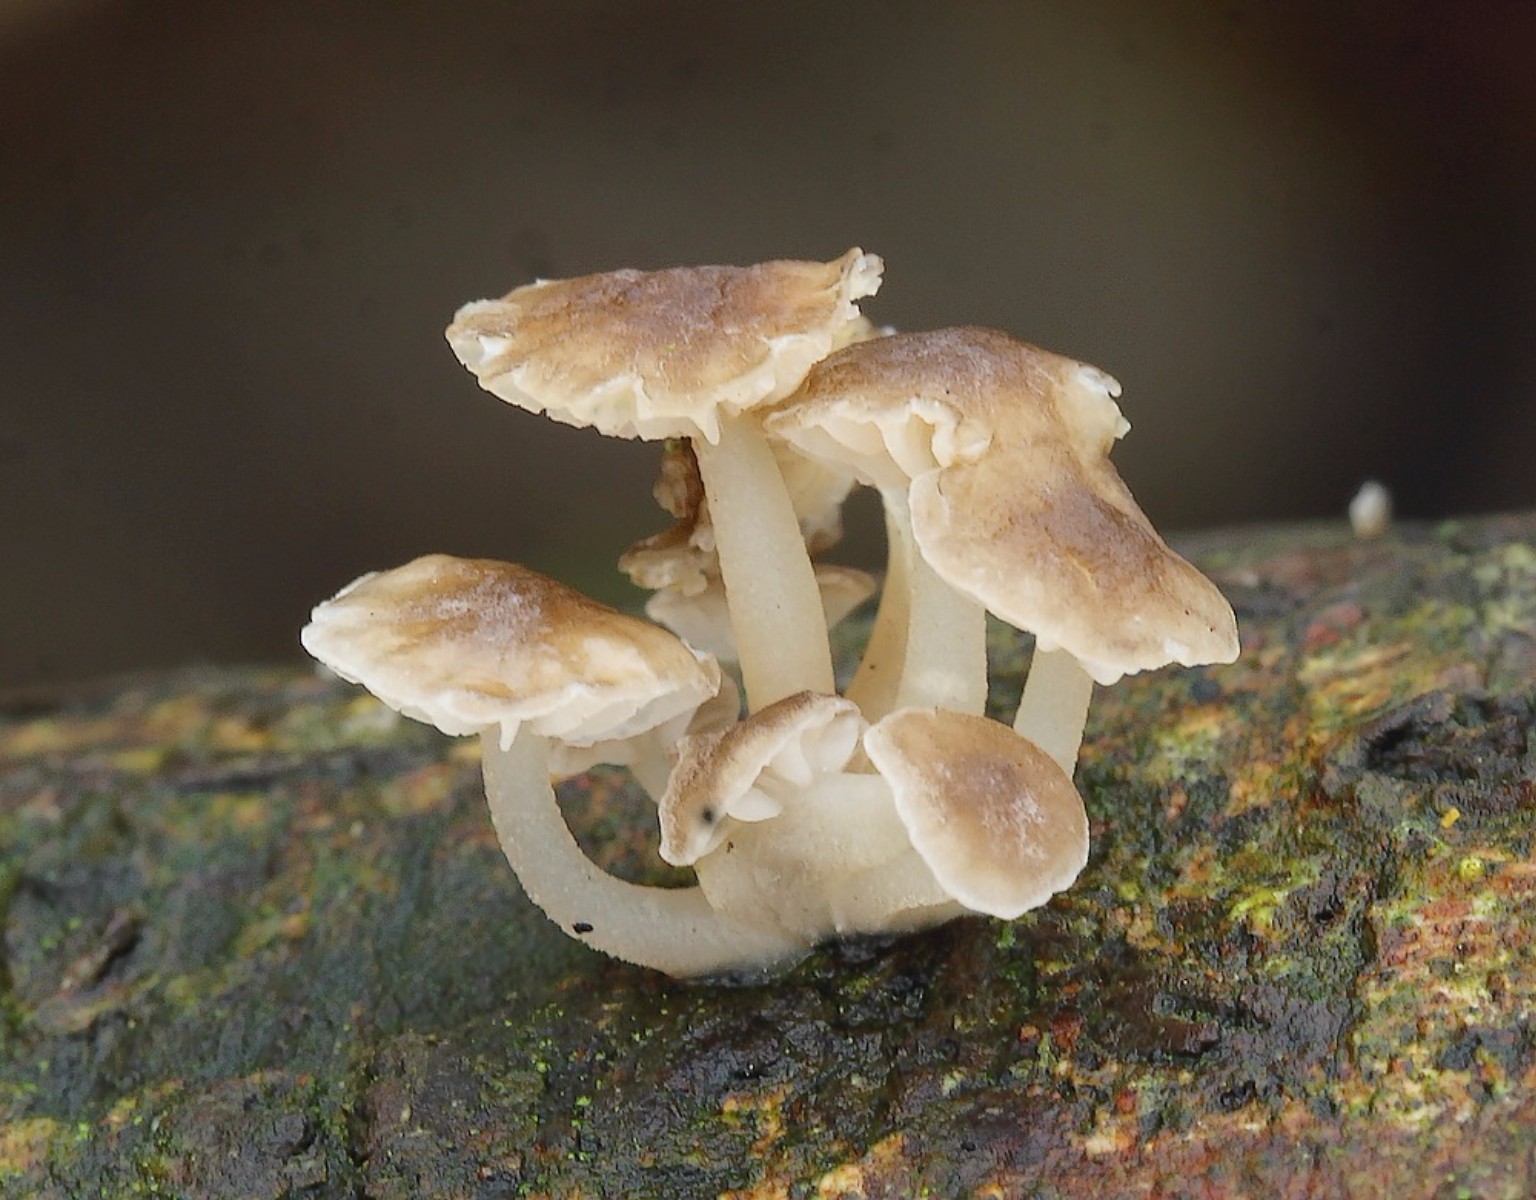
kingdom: Fungi
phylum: Basidiomycota
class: Agaricomycetes
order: Agaricales
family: Porotheleaceae
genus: Phloeomana
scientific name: Phloeomana speirea
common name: kvist-huesvamp
